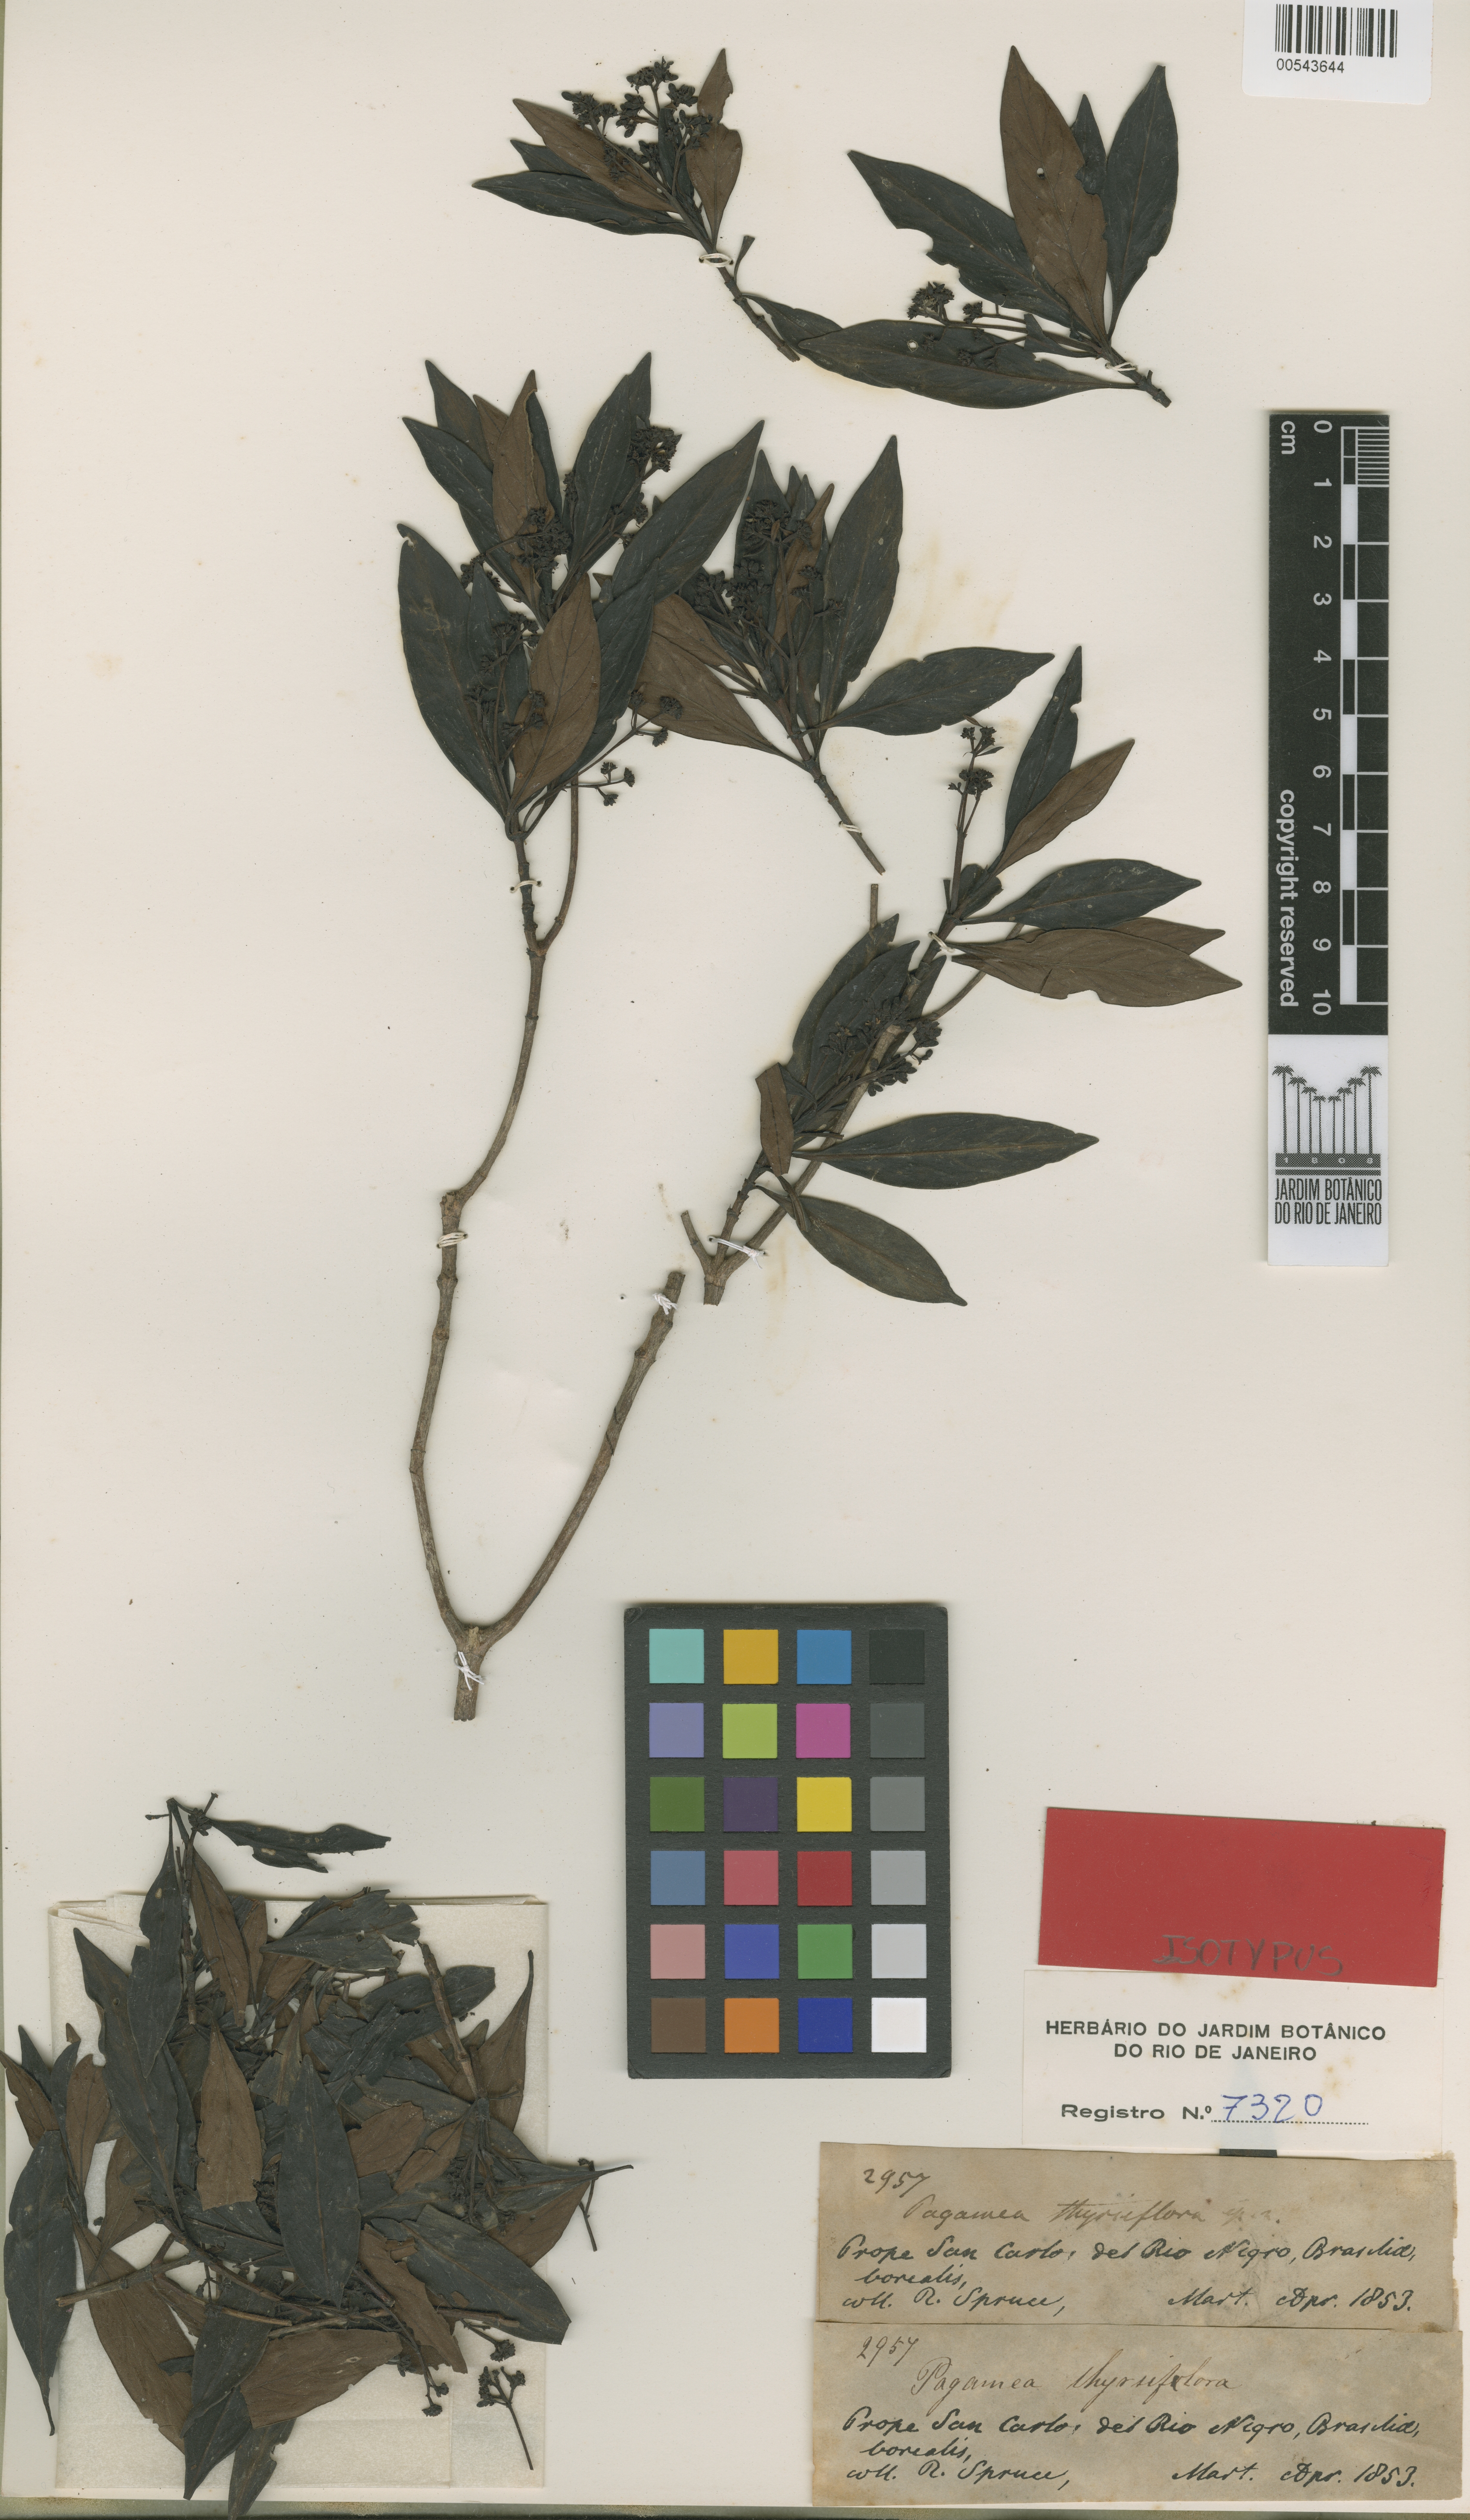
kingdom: Plantae
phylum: Tracheophyta
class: Magnoliopsida
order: Gentianales
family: Rubiaceae
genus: Pagamea
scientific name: Pagamea thyrsiflora
